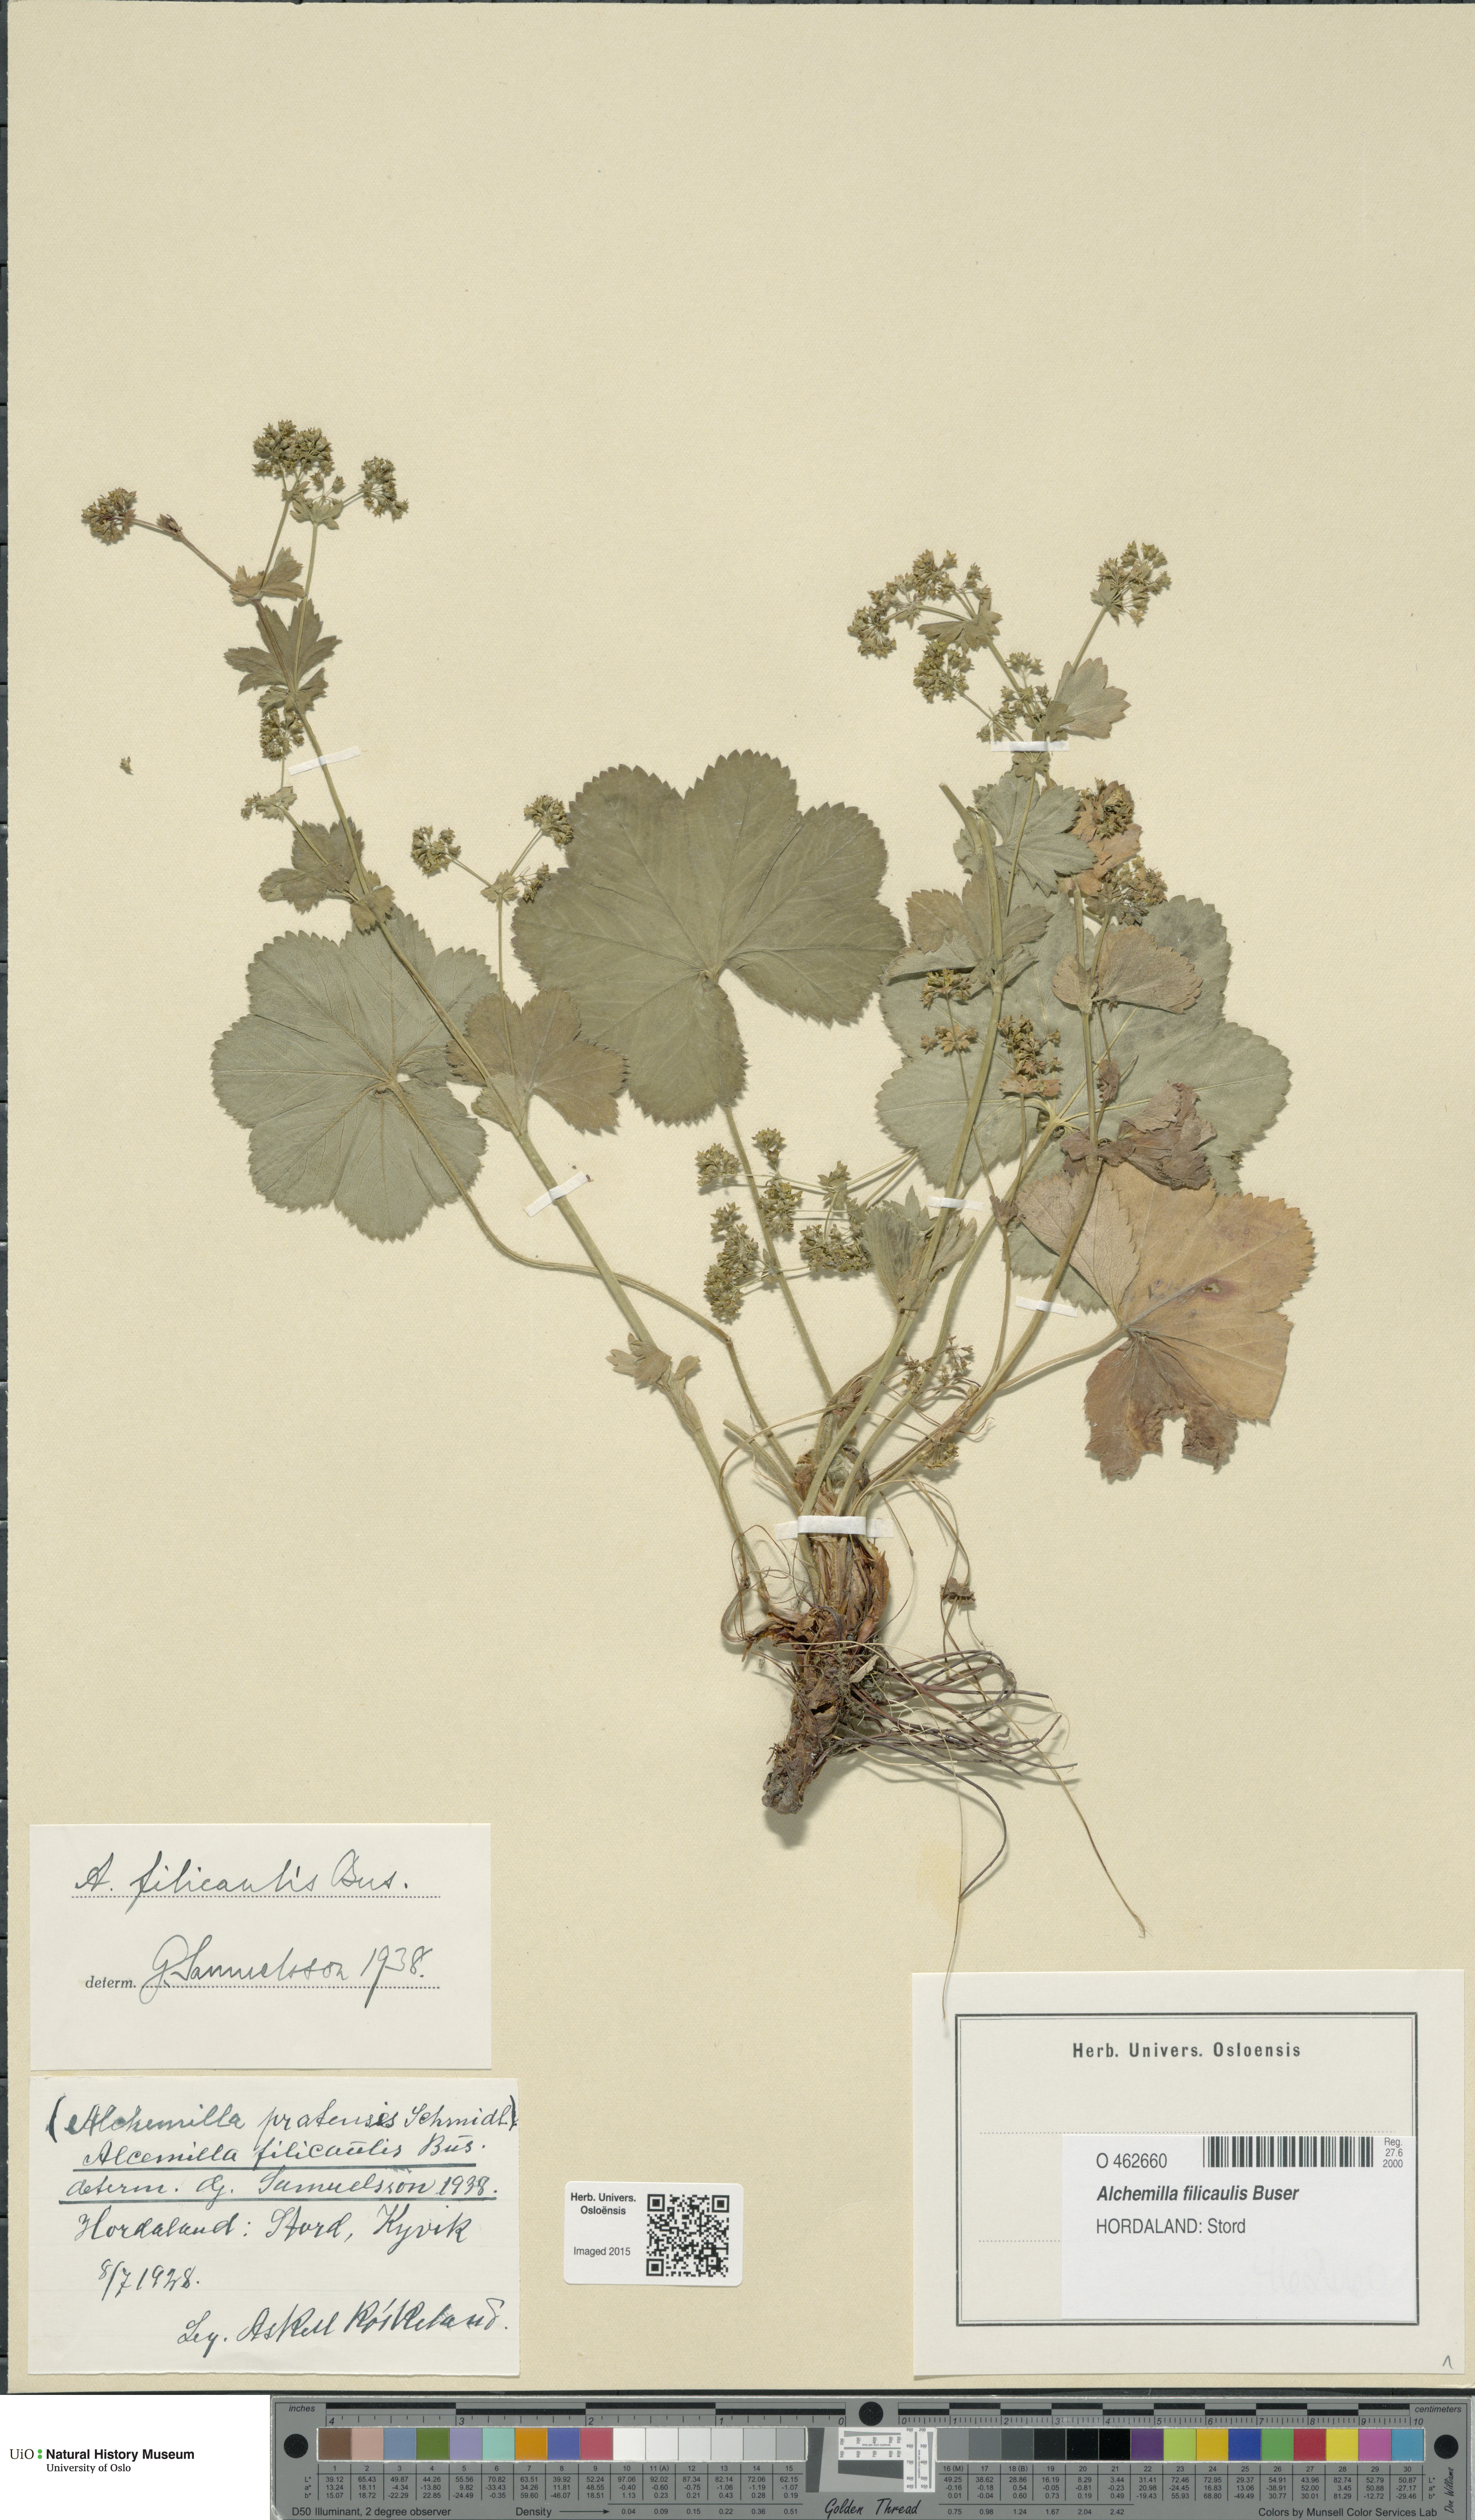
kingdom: Plantae
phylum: Tracheophyta
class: Magnoliopsida
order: Rosales
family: Rosaceae
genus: Alchemilla
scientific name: Alchemilla filicaulis
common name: Hairy lady's-mantle
